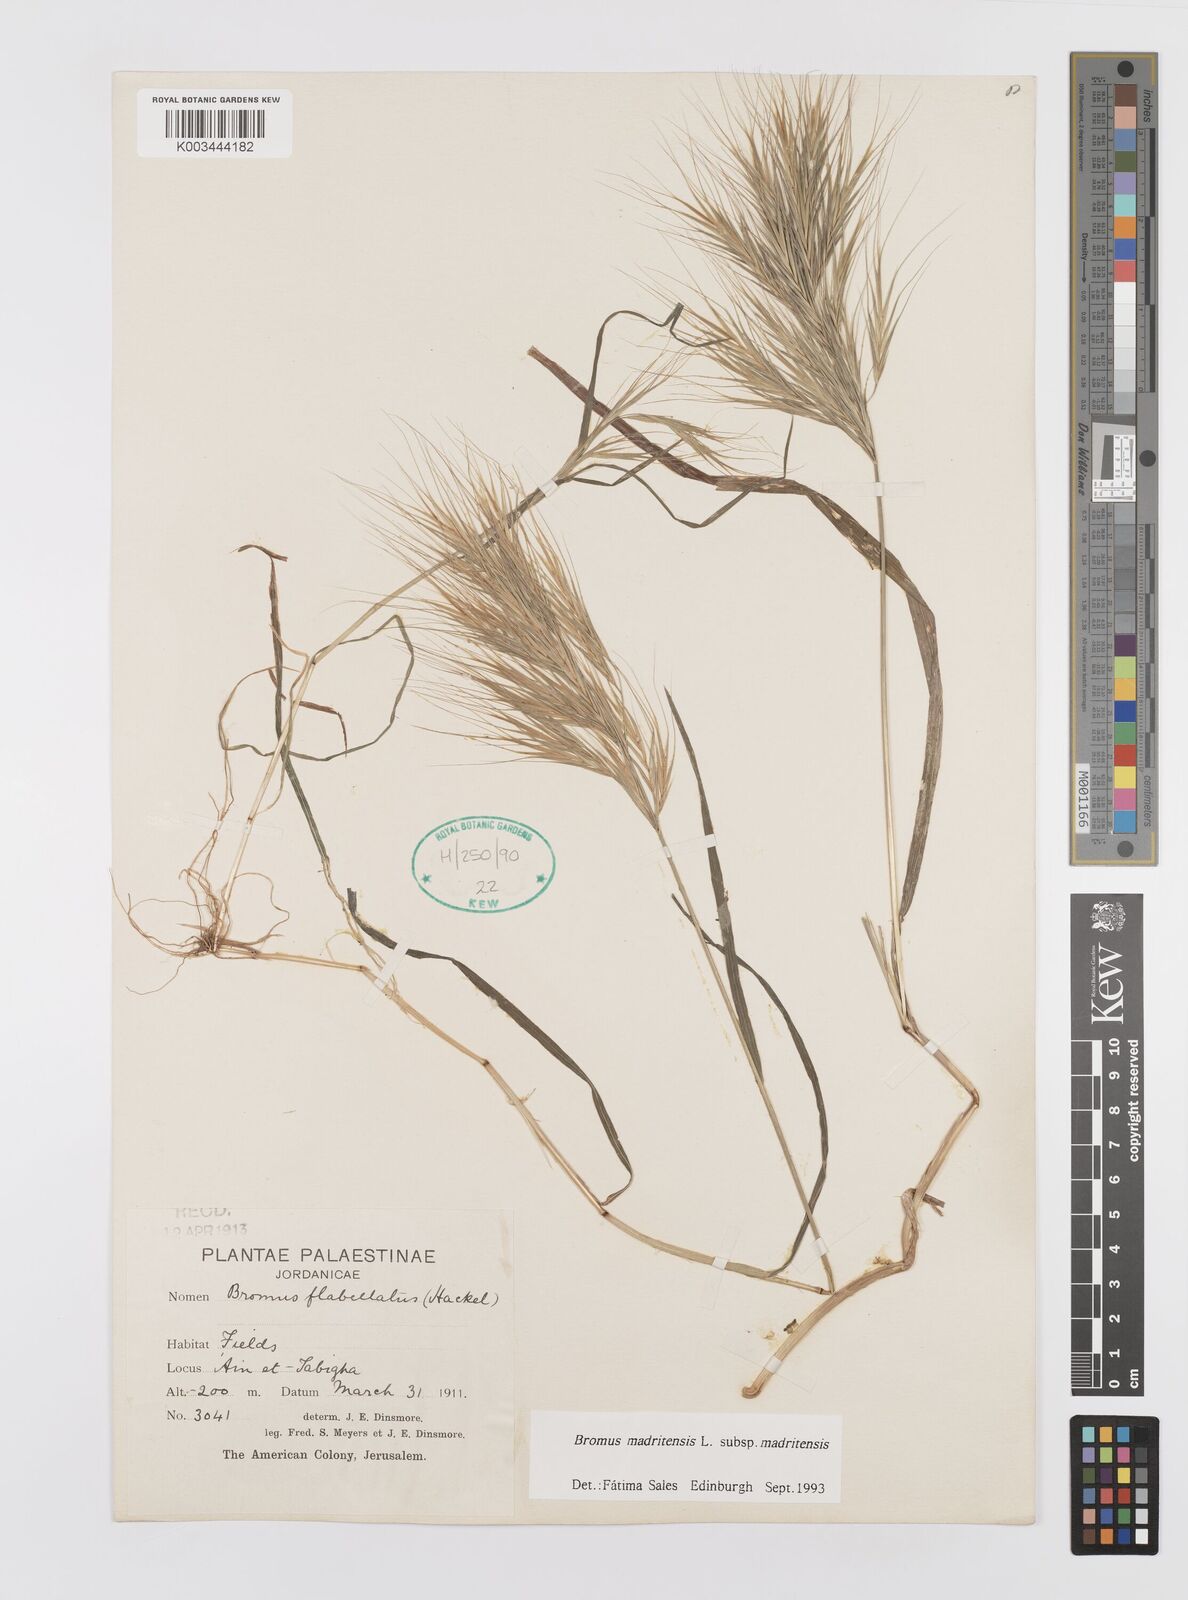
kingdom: Plantae
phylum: Tracheophyta
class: Liliopsida
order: Poales
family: Poaceae
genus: Bromus
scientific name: Bromus madritensis
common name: Compact brome
